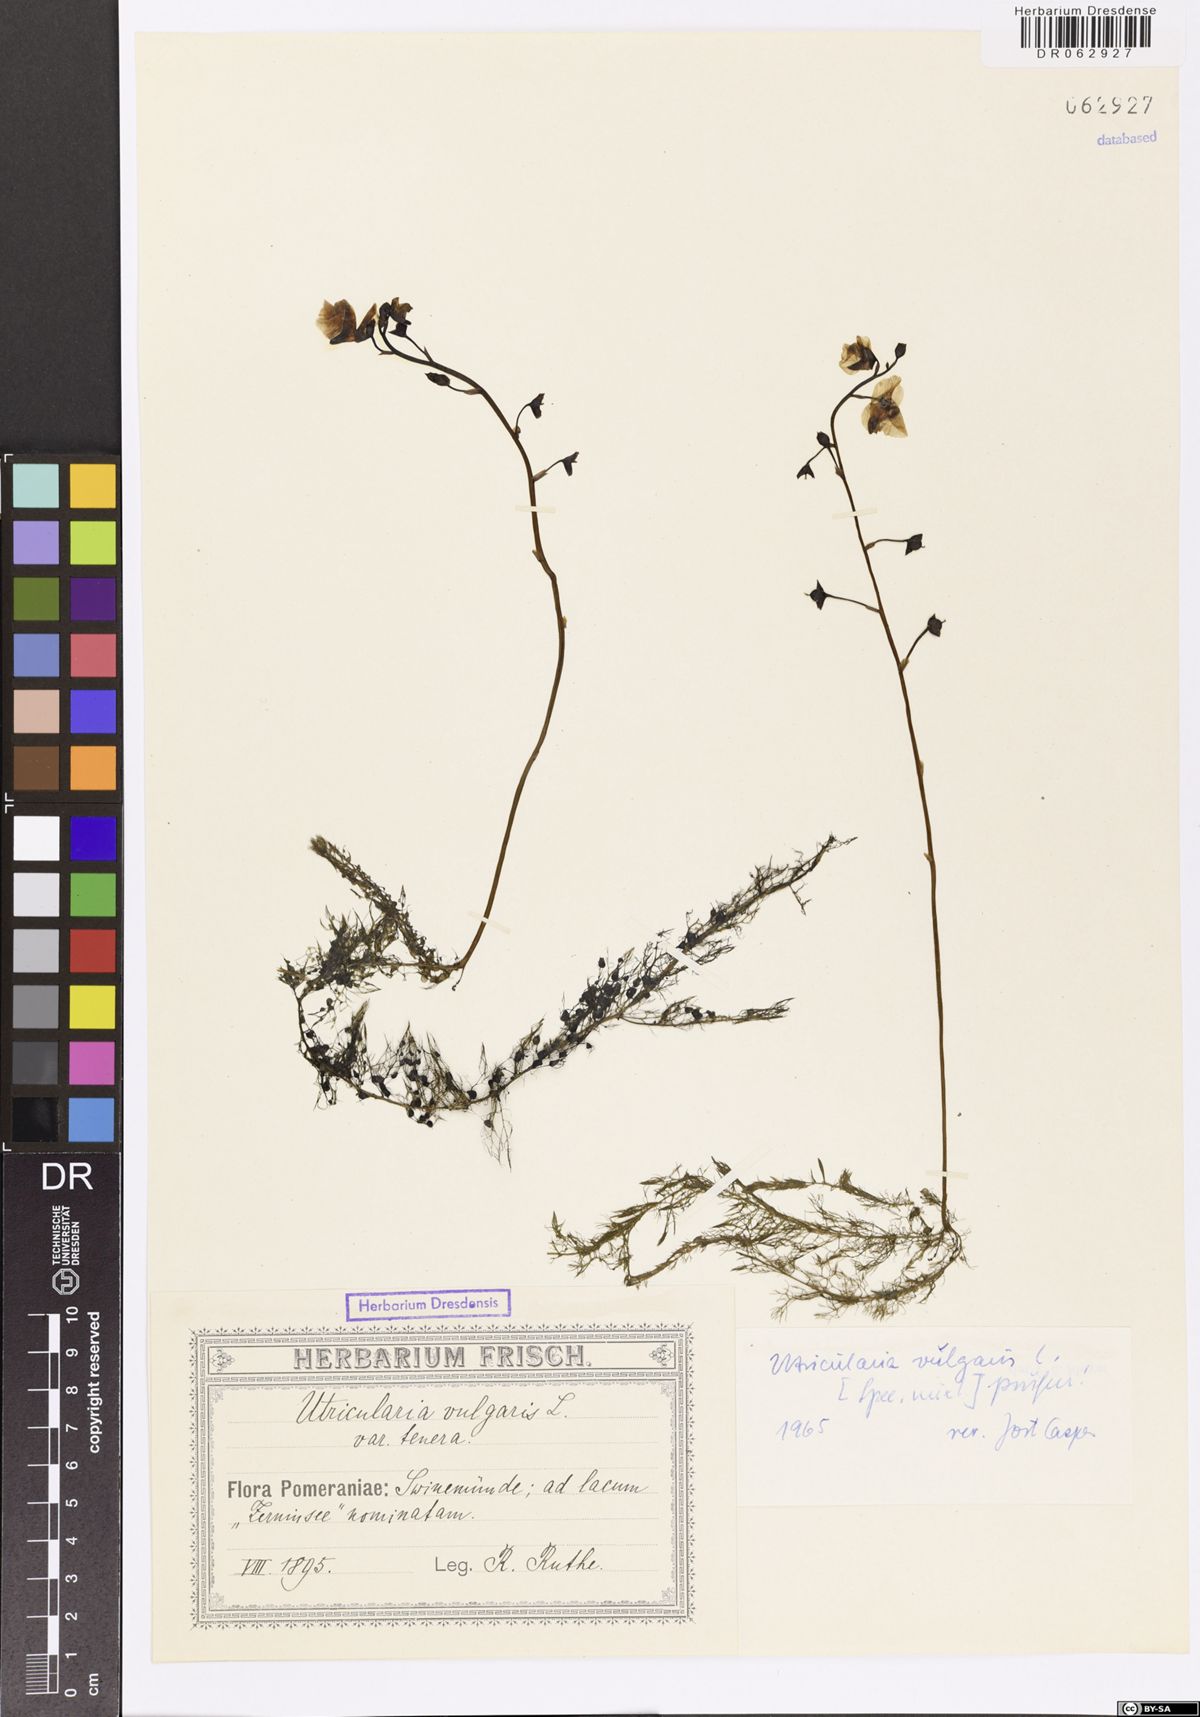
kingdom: Plantae
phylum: Tracheophyta
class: Magnoliopsida
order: Lamiales
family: Lentibulariaceae
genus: Utricularia
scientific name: Utricularia vulgaris
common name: Greater bladderwort
